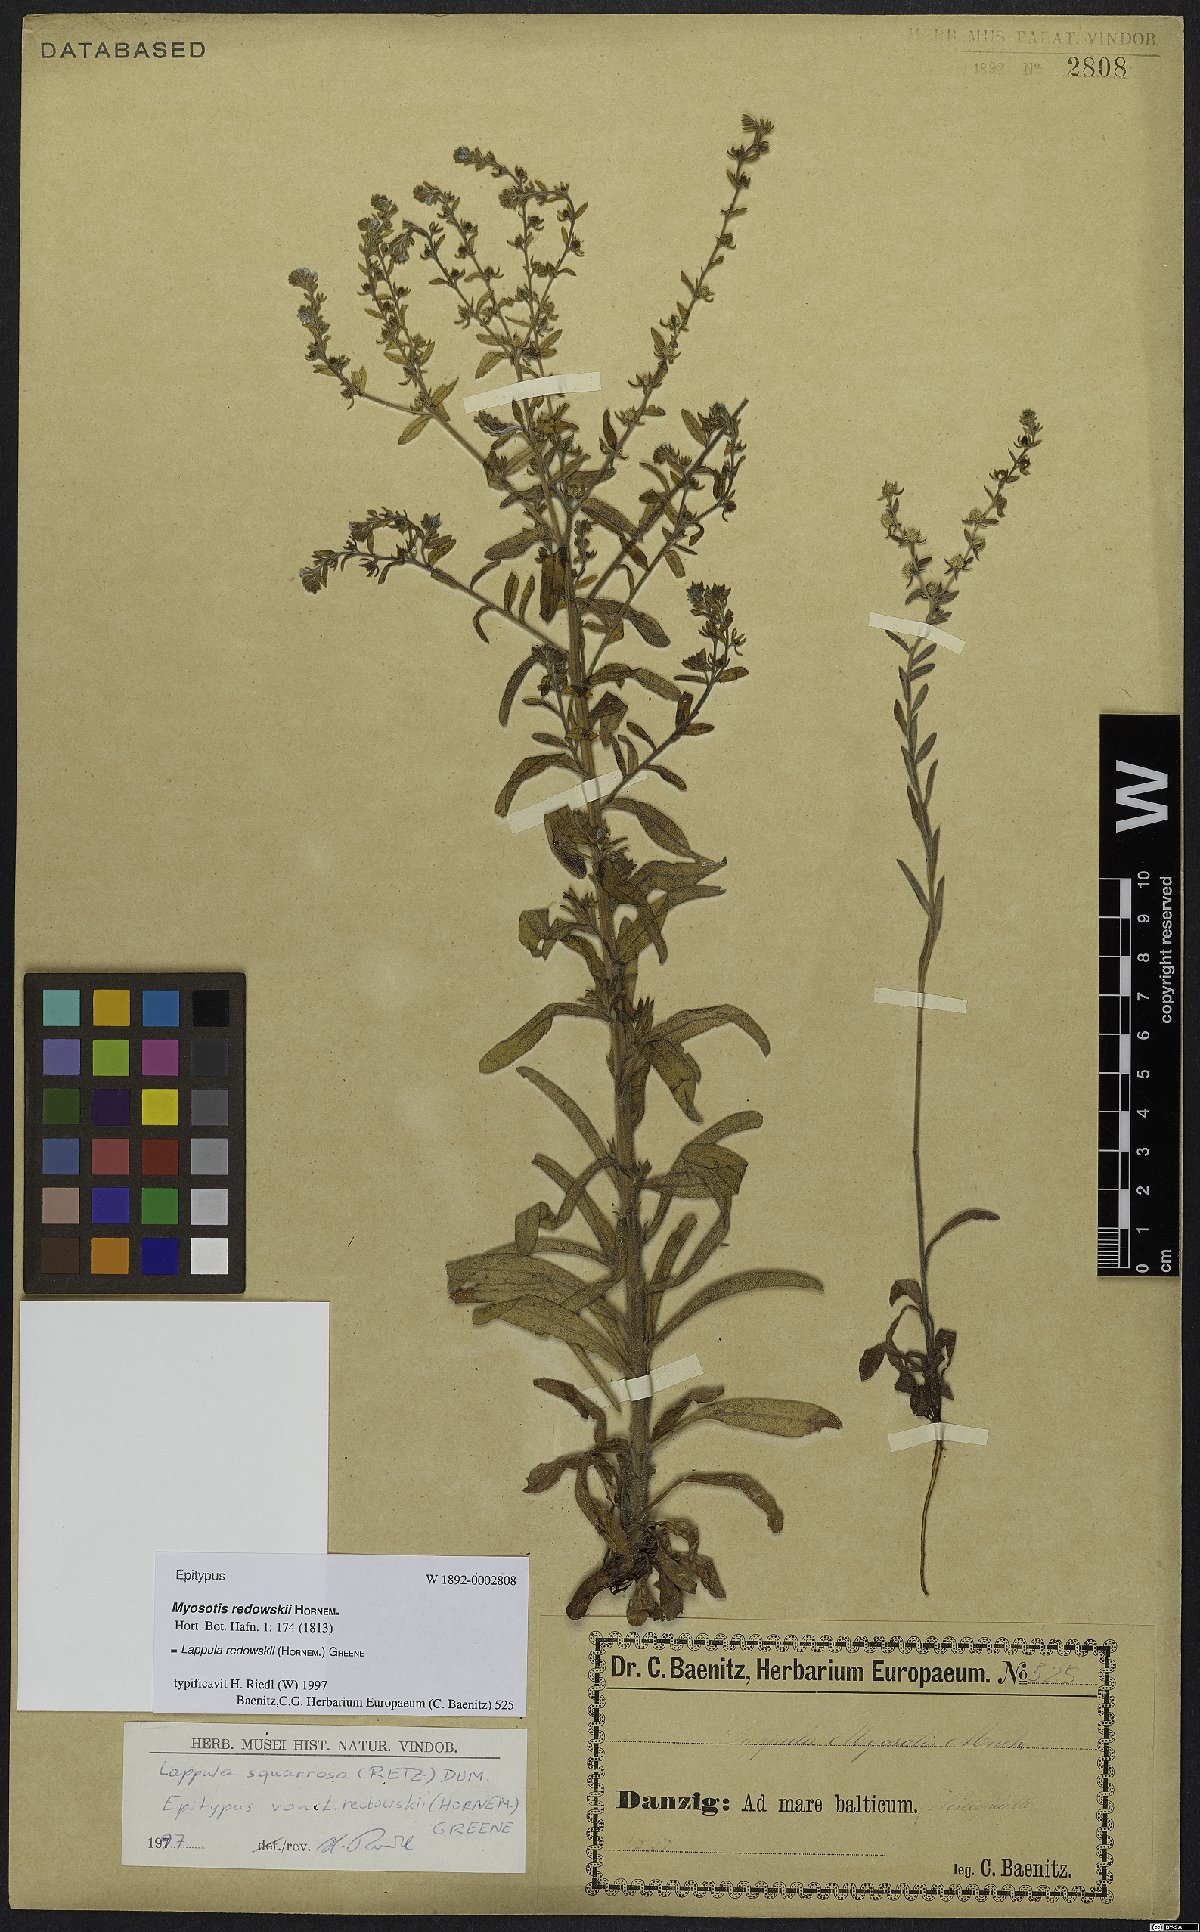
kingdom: Plantae
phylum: Tracheophyta
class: Magnoliopsida
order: Boraginales
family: Boraginaceae
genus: Lappula
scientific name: Lappula redowskii
